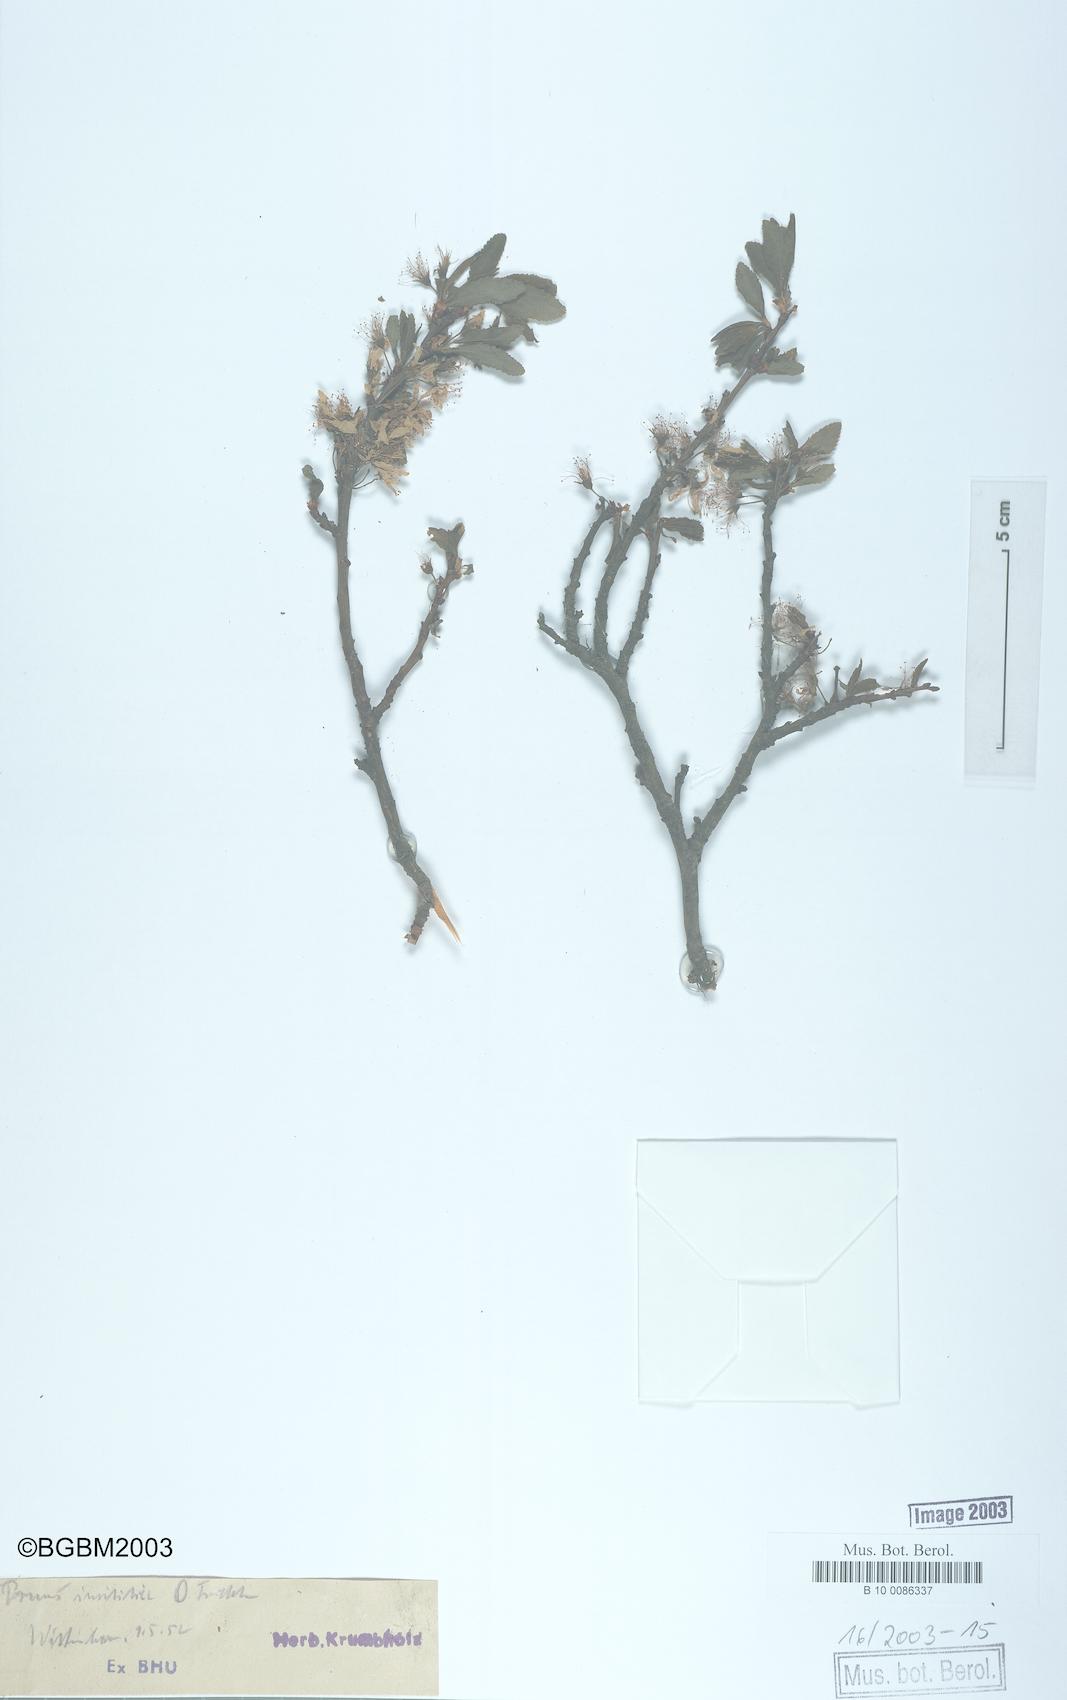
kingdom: Plantae
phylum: Tracheophyta
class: Magnoliopsida
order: Rosales
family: Rosaceae
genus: Prunus
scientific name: Prunus
